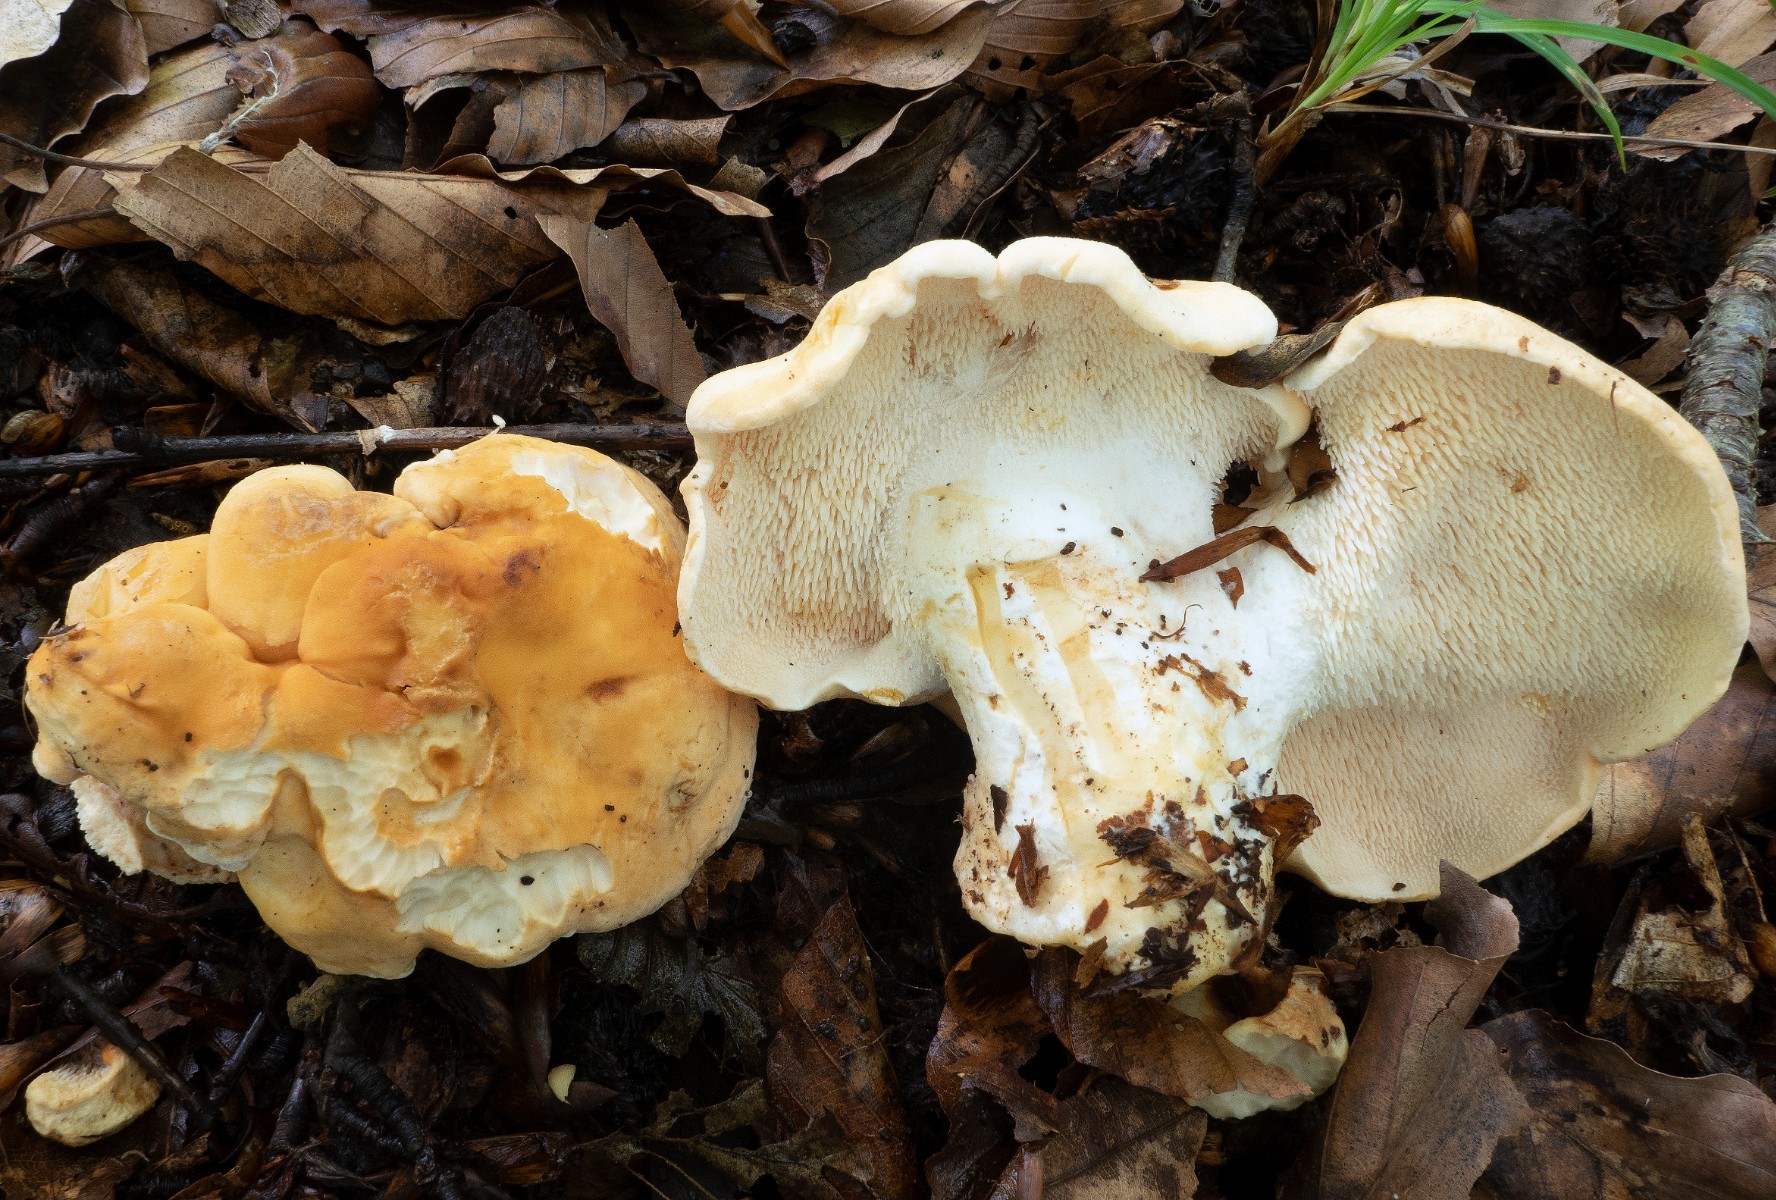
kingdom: Fungi
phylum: Basidiomycota
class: Agaricomycetes
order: Cantharellales
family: Hydnaceae
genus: Hydnum
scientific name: Hydnum slovenicum
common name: slovensk pigsvamp
